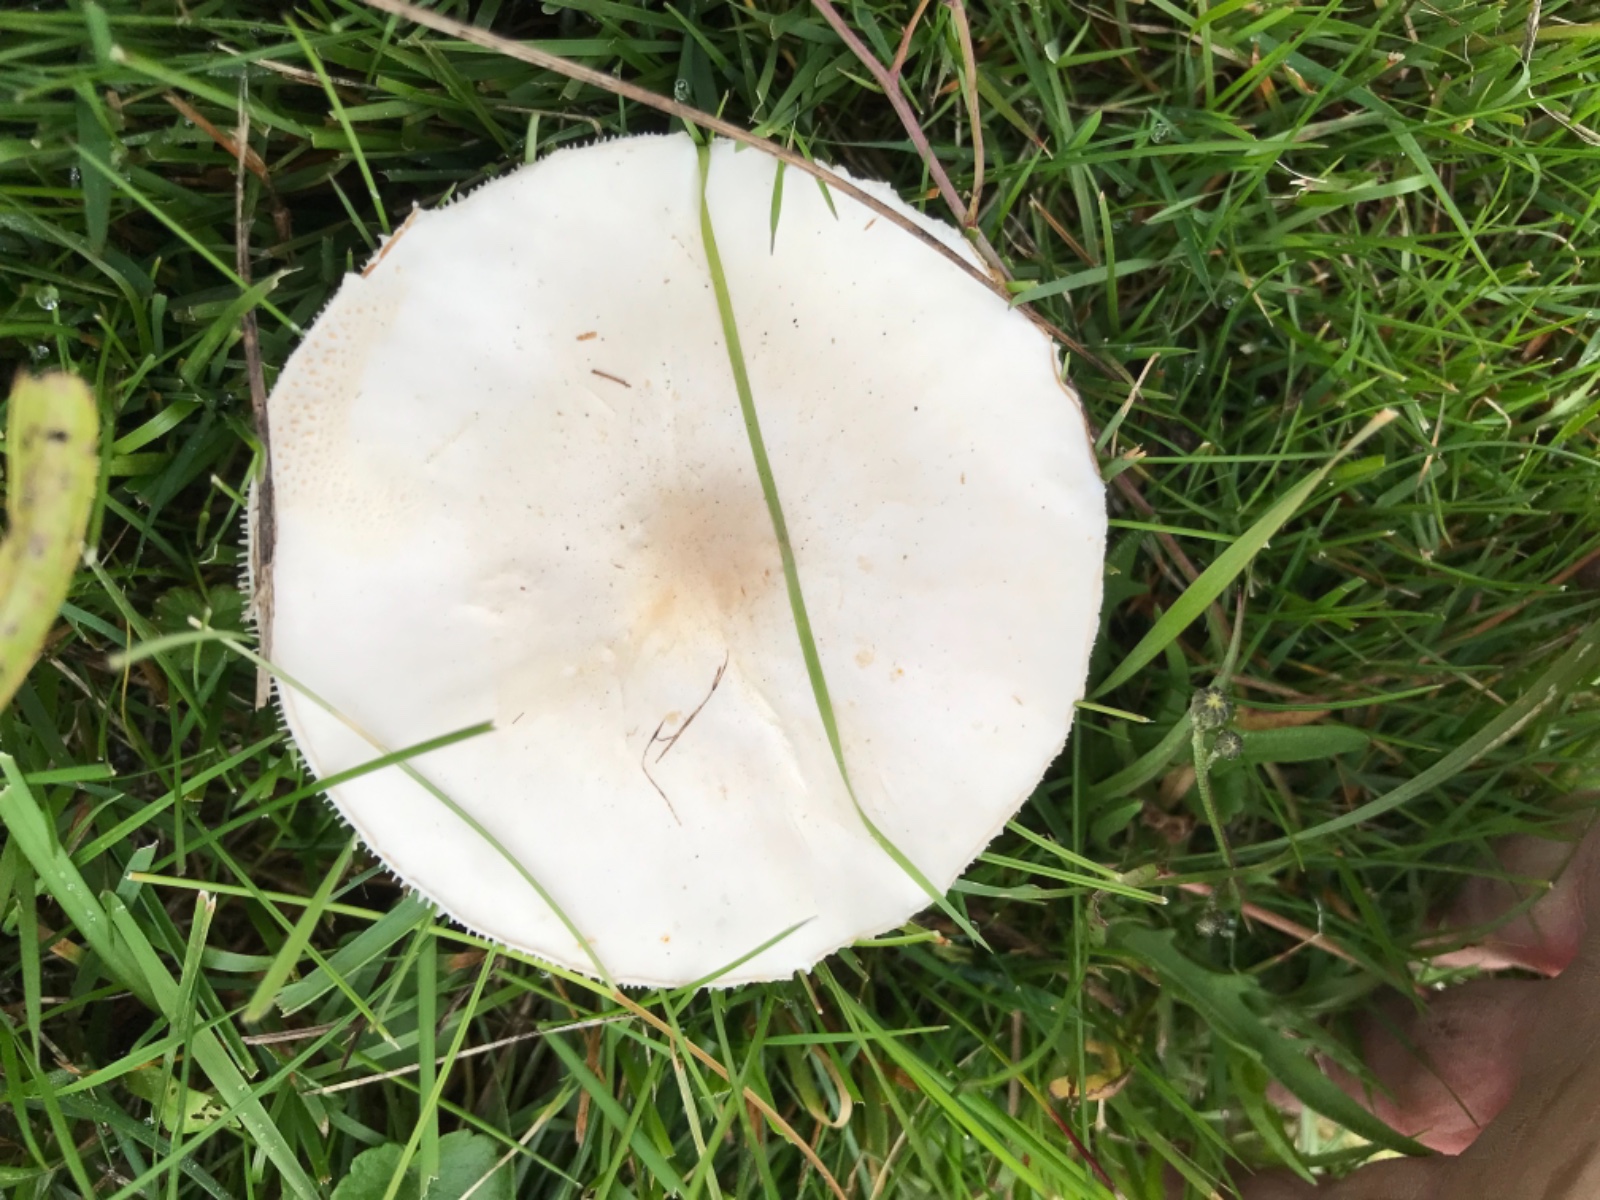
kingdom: Fungi
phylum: Basidiomycota
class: Agaricomycetes
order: Agaricales
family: Agaricaceae
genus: Leucoagaricus
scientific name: Leucoagaricus leucothites
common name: rosabladet silkehat
